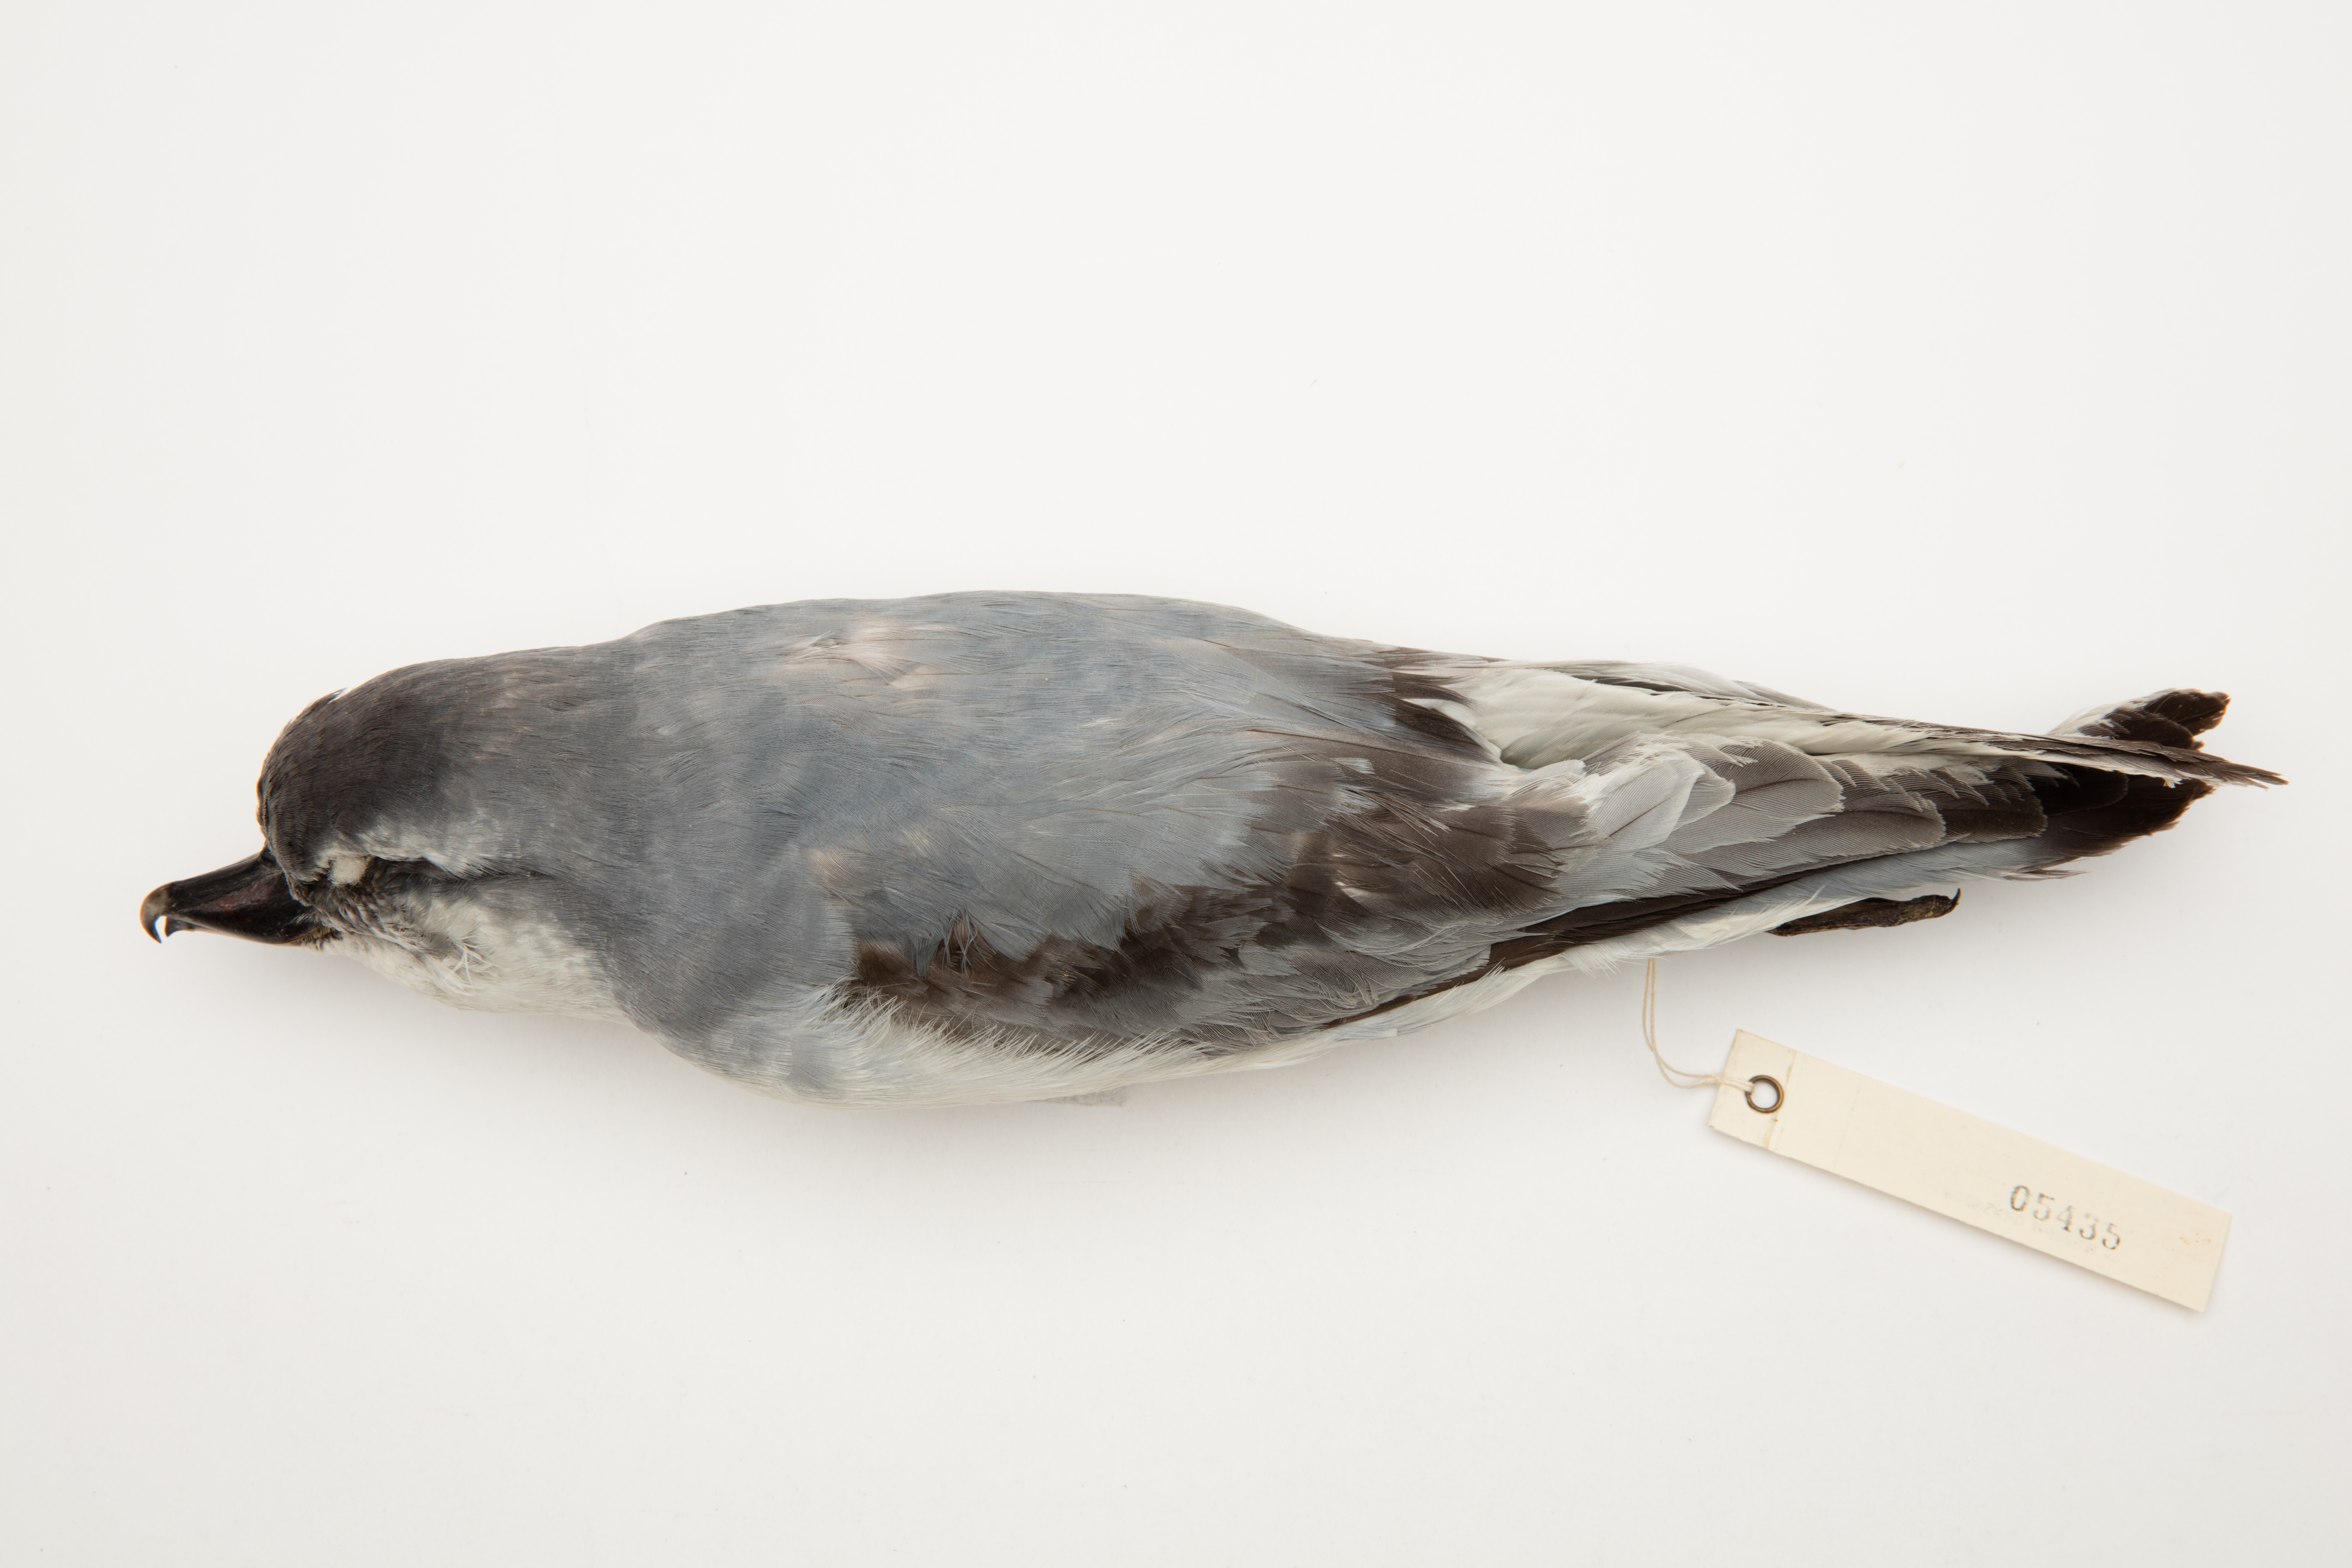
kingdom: Animalia
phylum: Chordata
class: Aves
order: Procellariiformes
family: Procellariidae
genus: Pachyptila
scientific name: Pachyptila vittata
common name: Broad-billed prion
